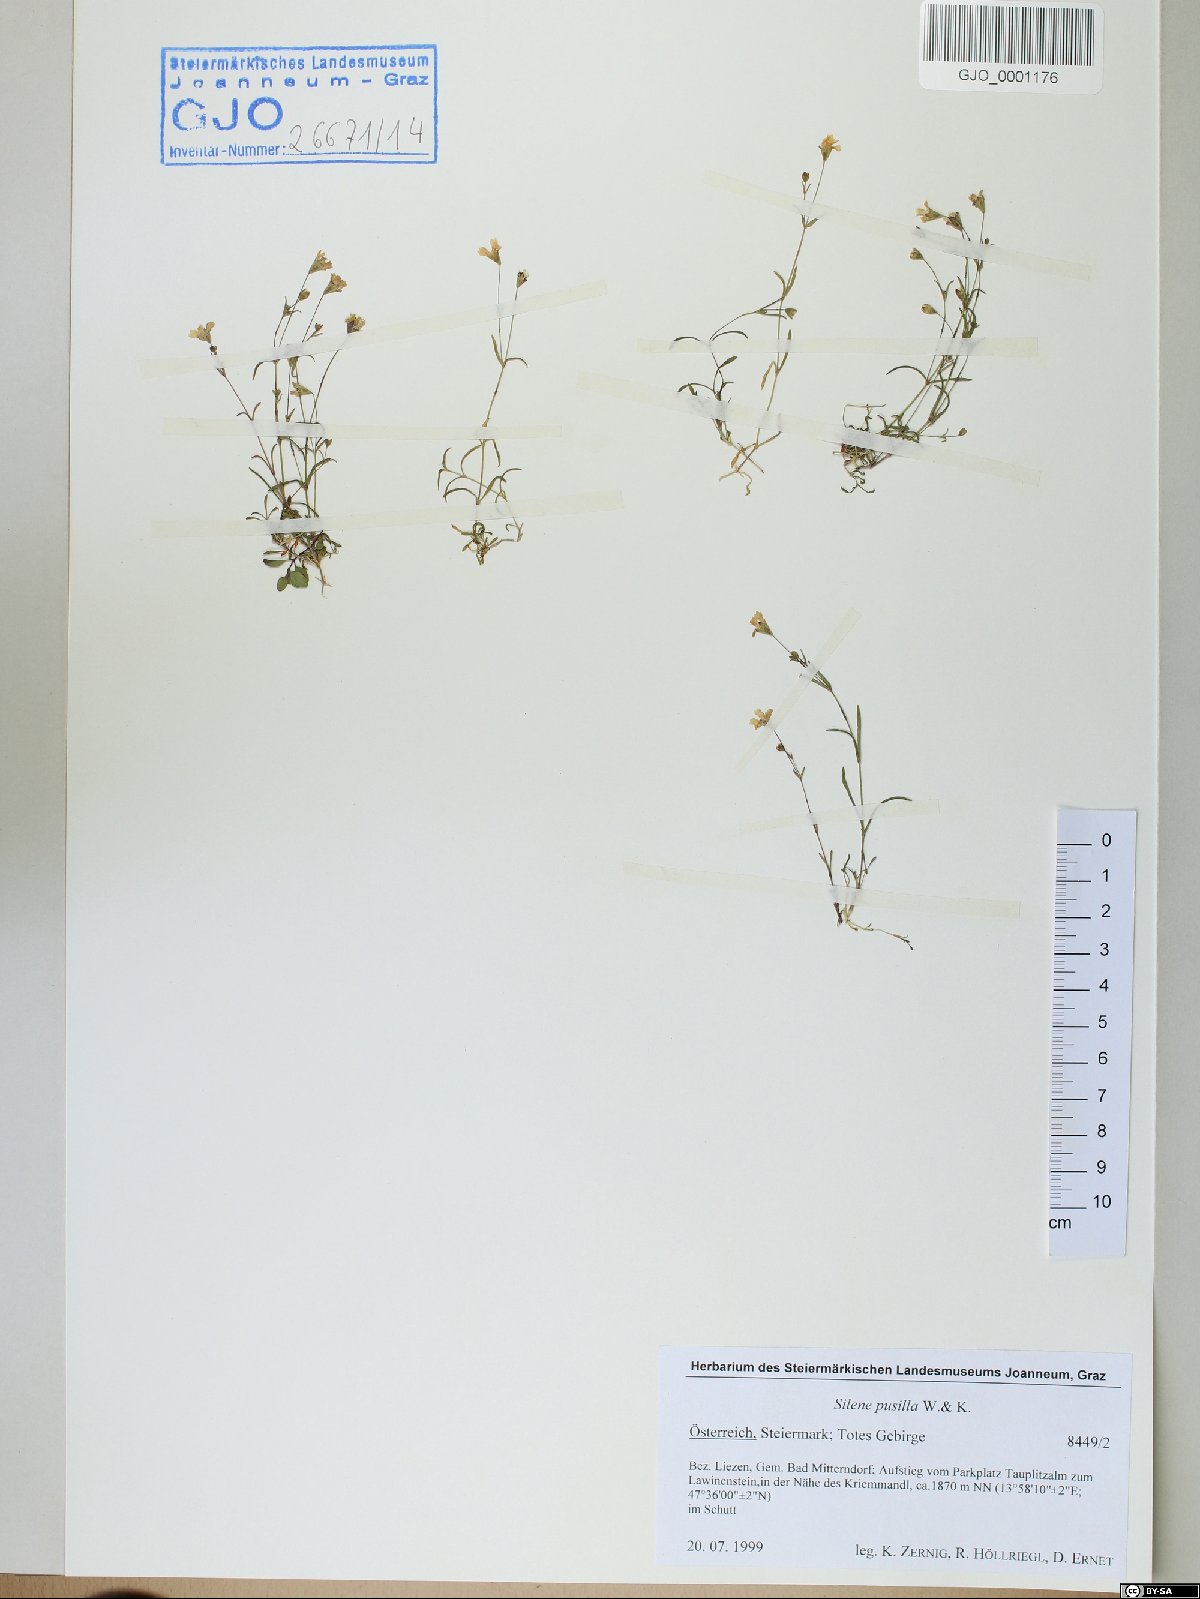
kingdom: Plantae
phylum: Tracheophyta
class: Magnoliopsida
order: Caryophyllales
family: Caryophyllaceae
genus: Heliosperma
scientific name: Heliosperma pusillum
